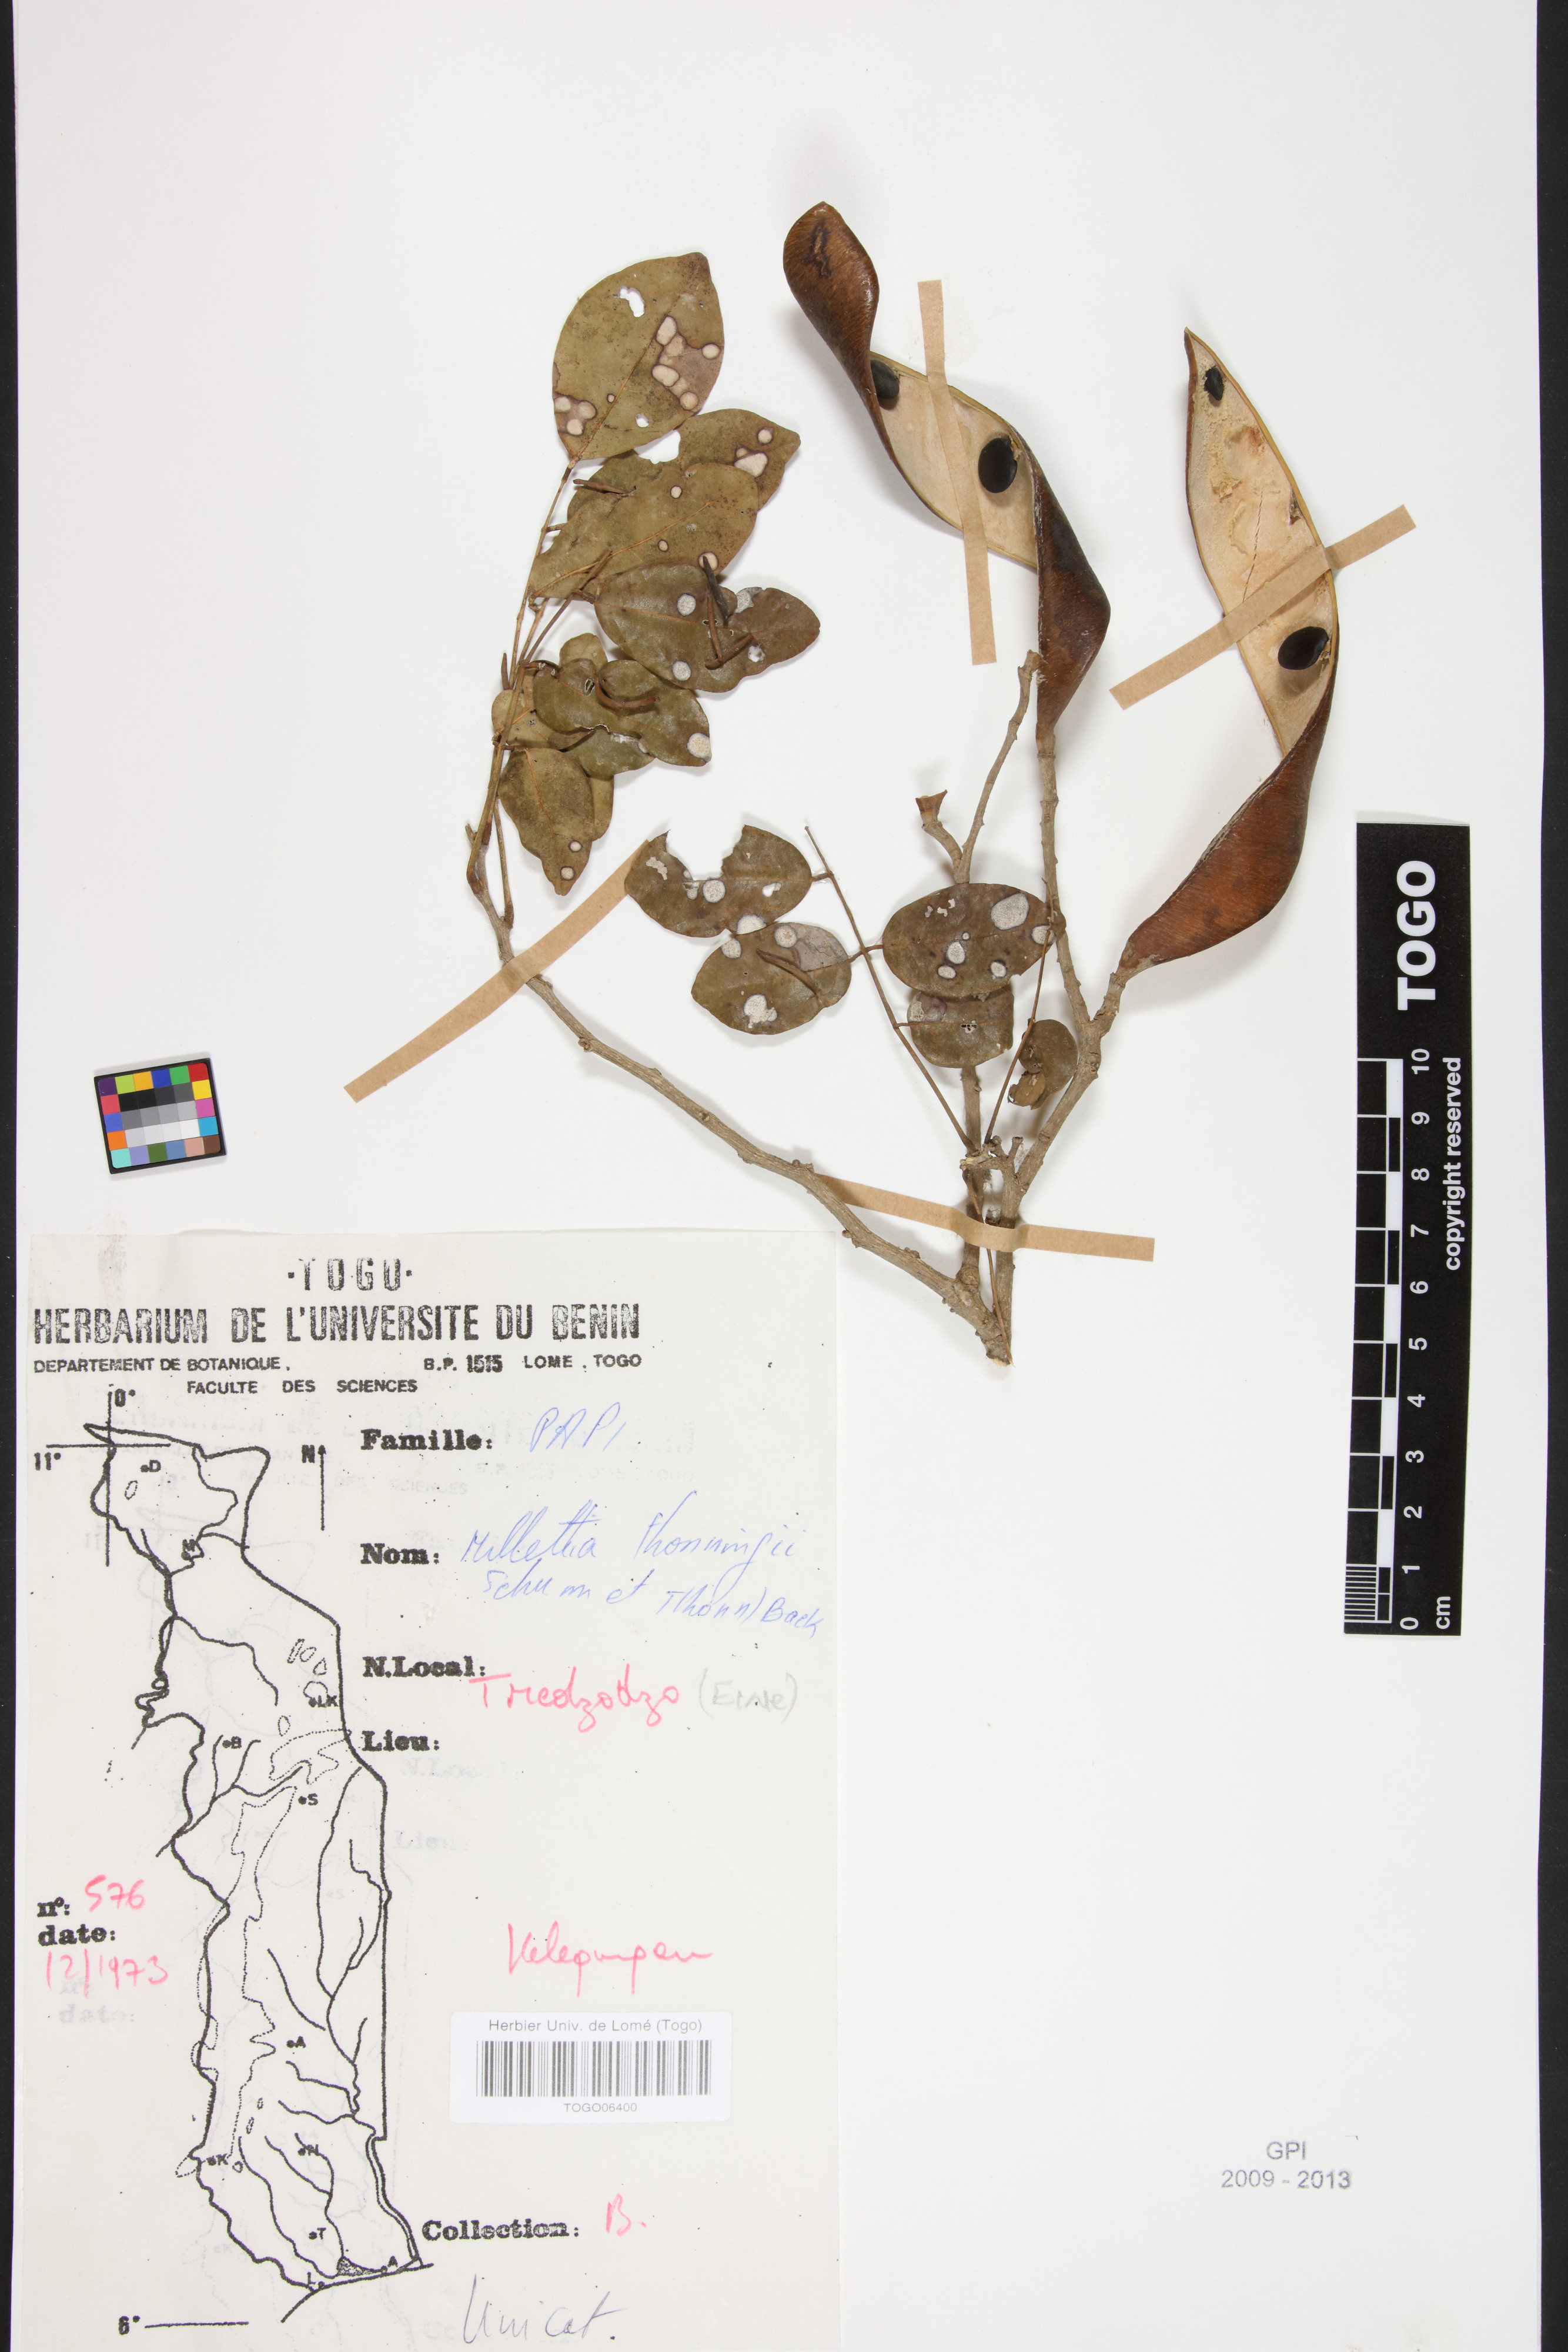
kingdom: Plantae
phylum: Tracheophyta
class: Magnoliopsida
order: Fabales
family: Fabaceae
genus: Millettia
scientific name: Millettia thonningii
